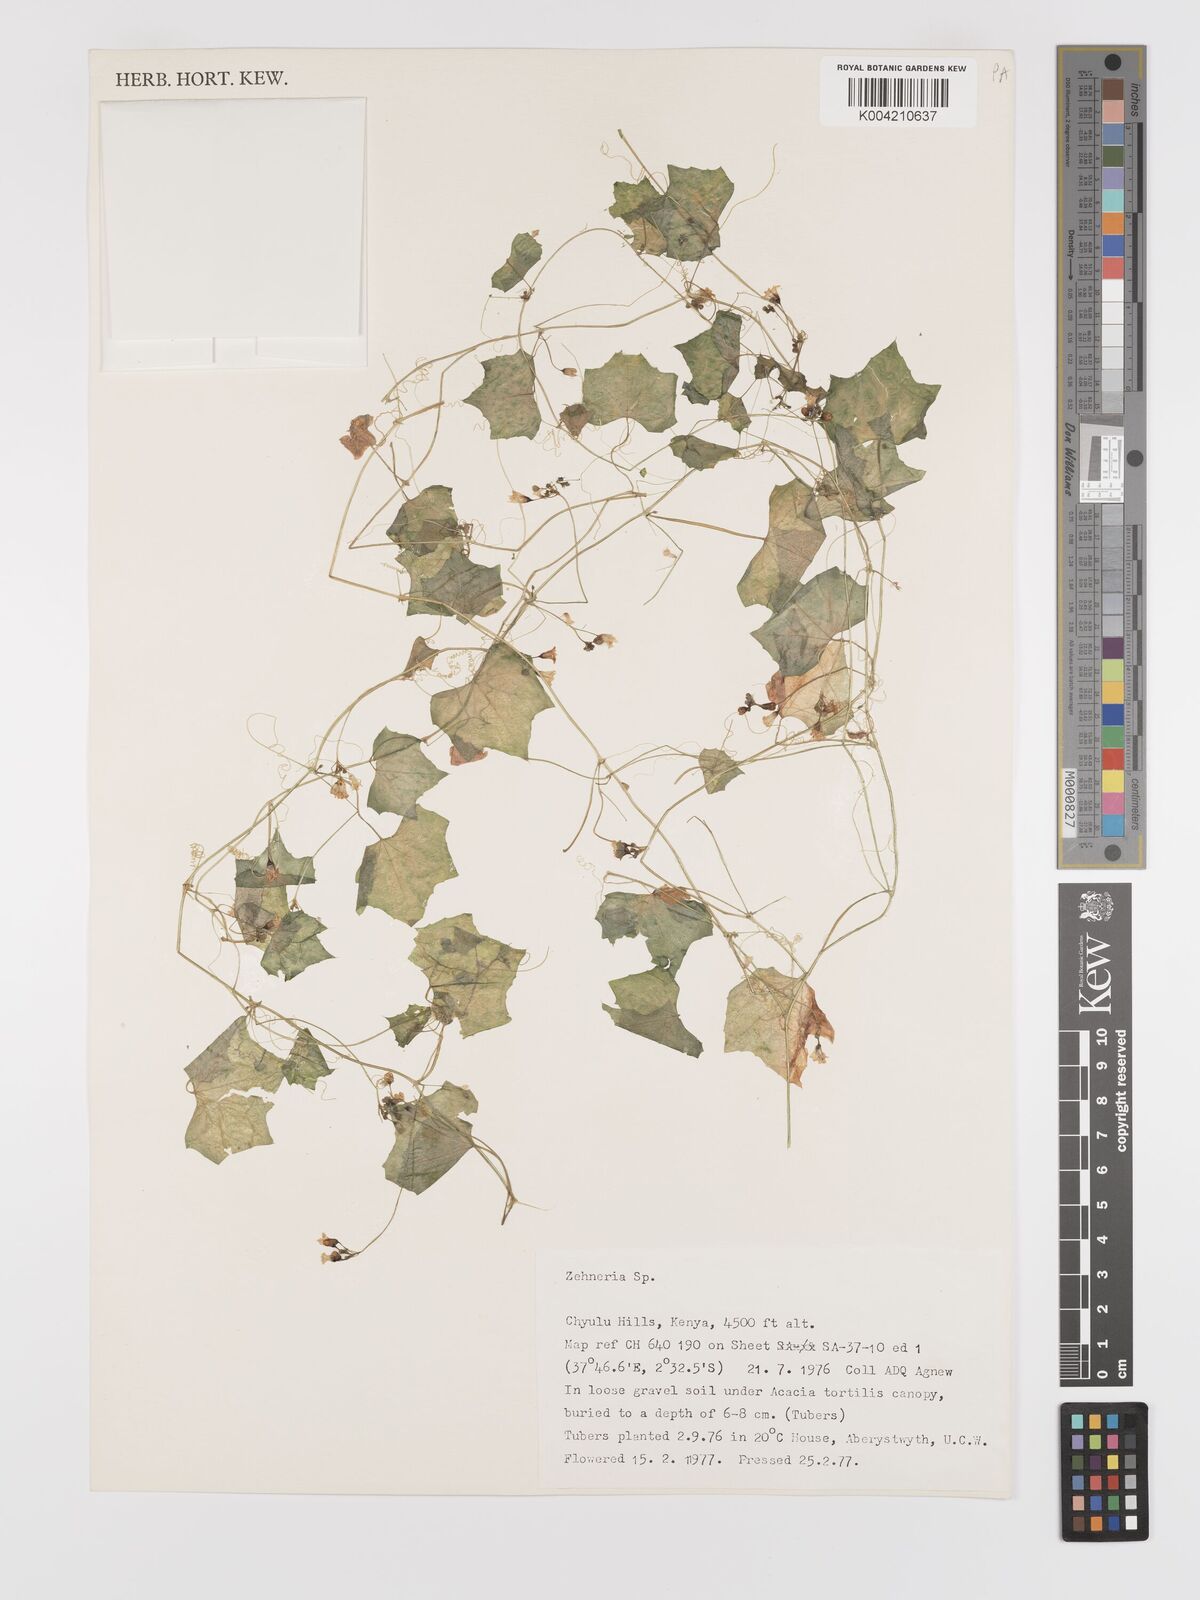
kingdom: Plantae
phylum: Tracheophyta
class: Magnoliopsida
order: Cucurbitales
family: Cucurbitaceae
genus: Zehneria
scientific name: Zehneria
